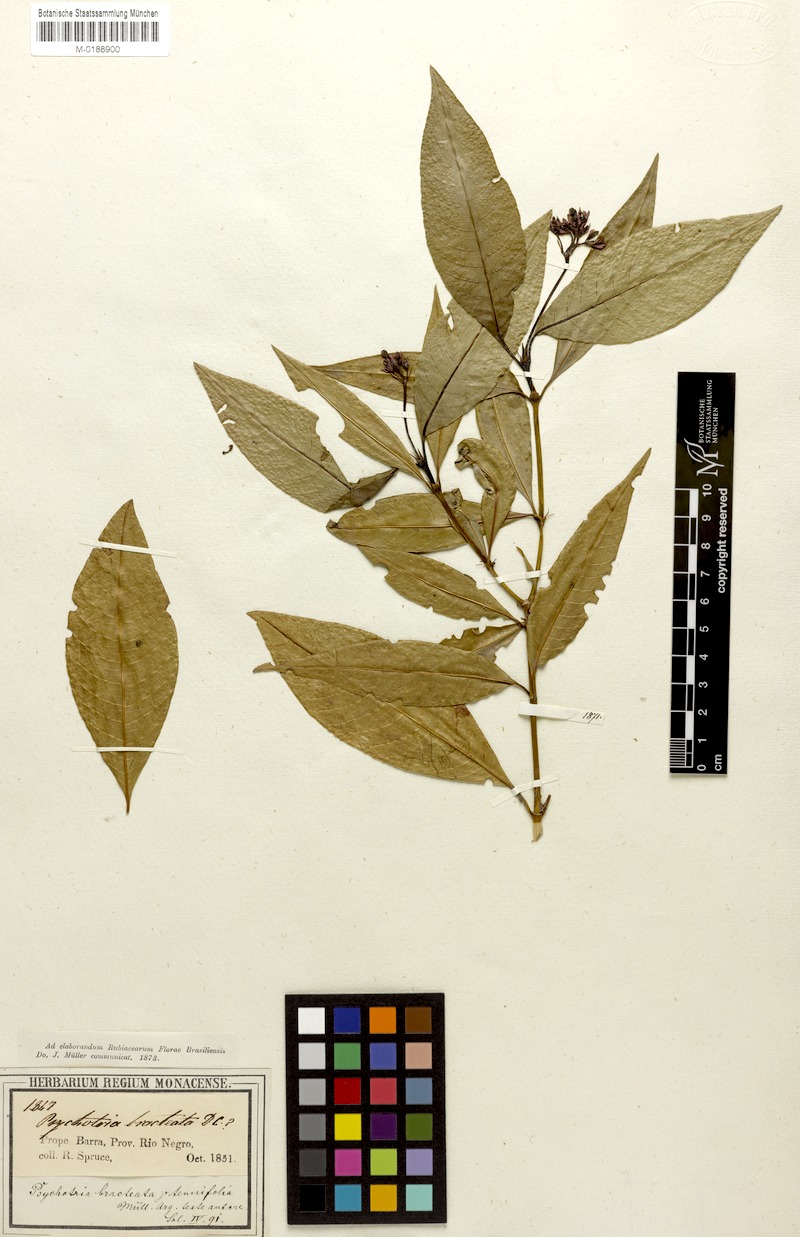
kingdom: Plantae
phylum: Tracheophyta
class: Magnoliopsida
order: Gentianales
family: Rubiaceae
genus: Palicourea
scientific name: Palicourea maguireorum
